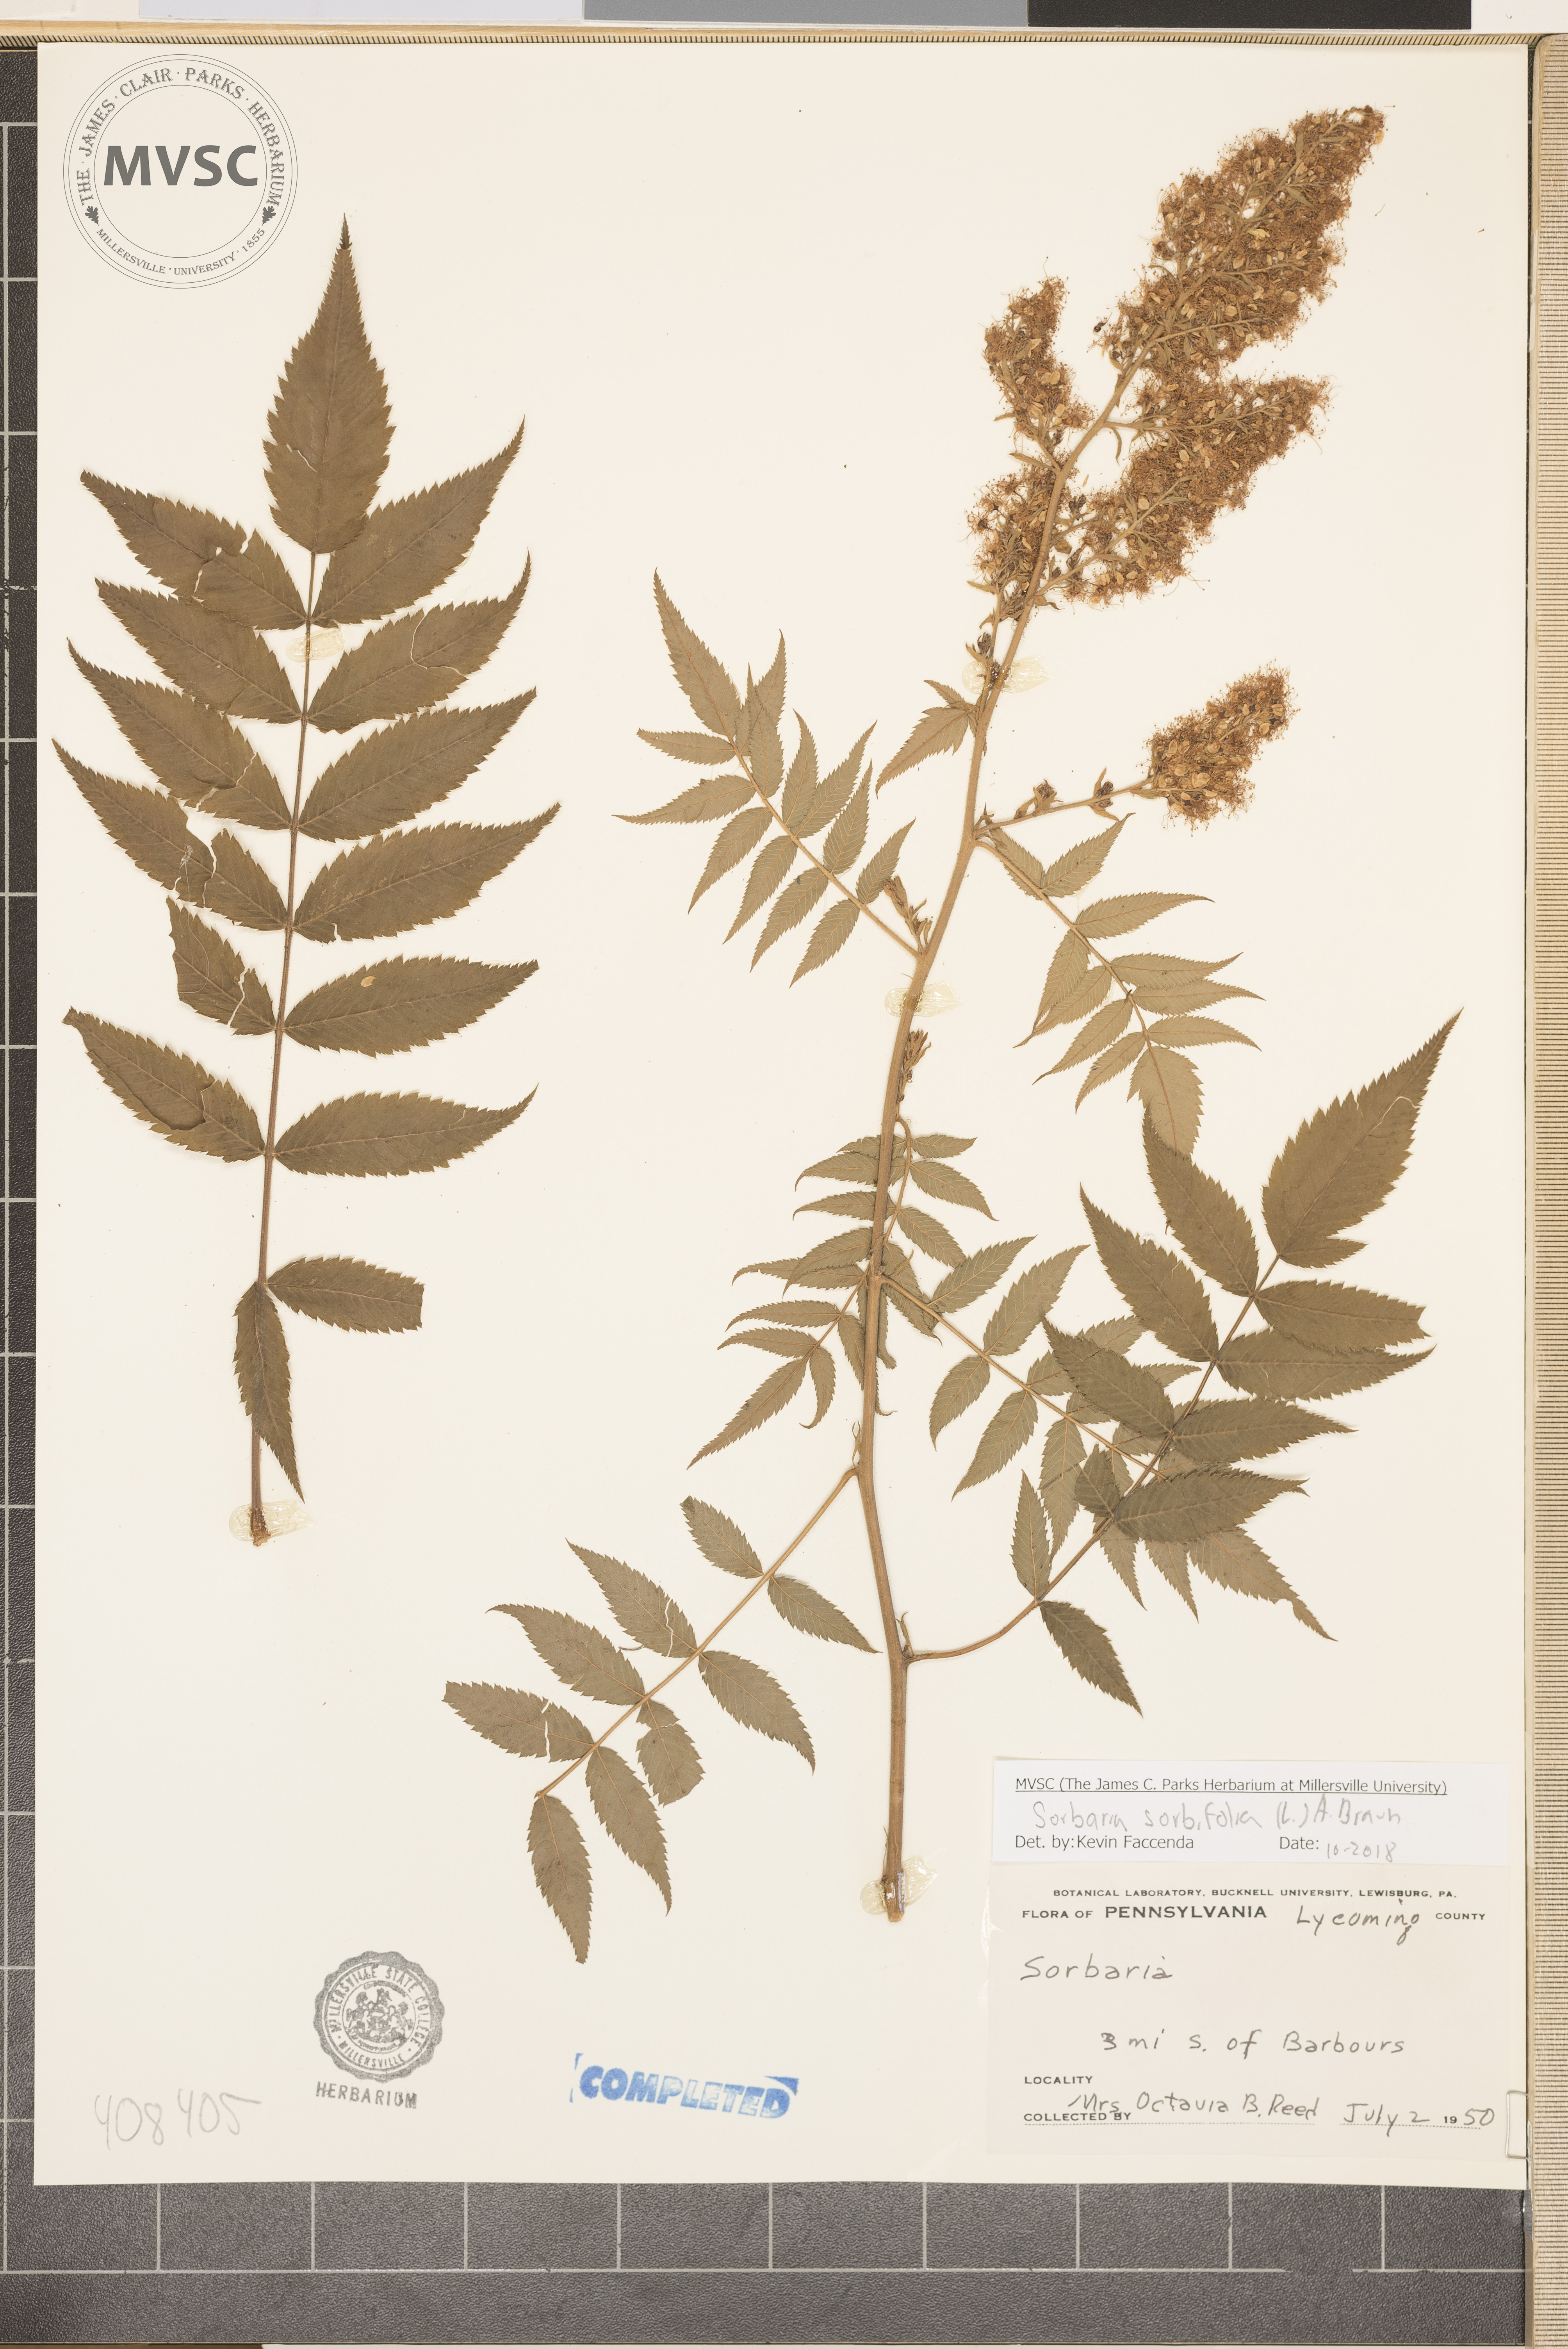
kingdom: Plantae
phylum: Tracheophyta
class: Magnoliopsida
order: Rosales
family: Rosaceae
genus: Sorbaria
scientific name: Sorbaria sorbifolia
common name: False spiraea
